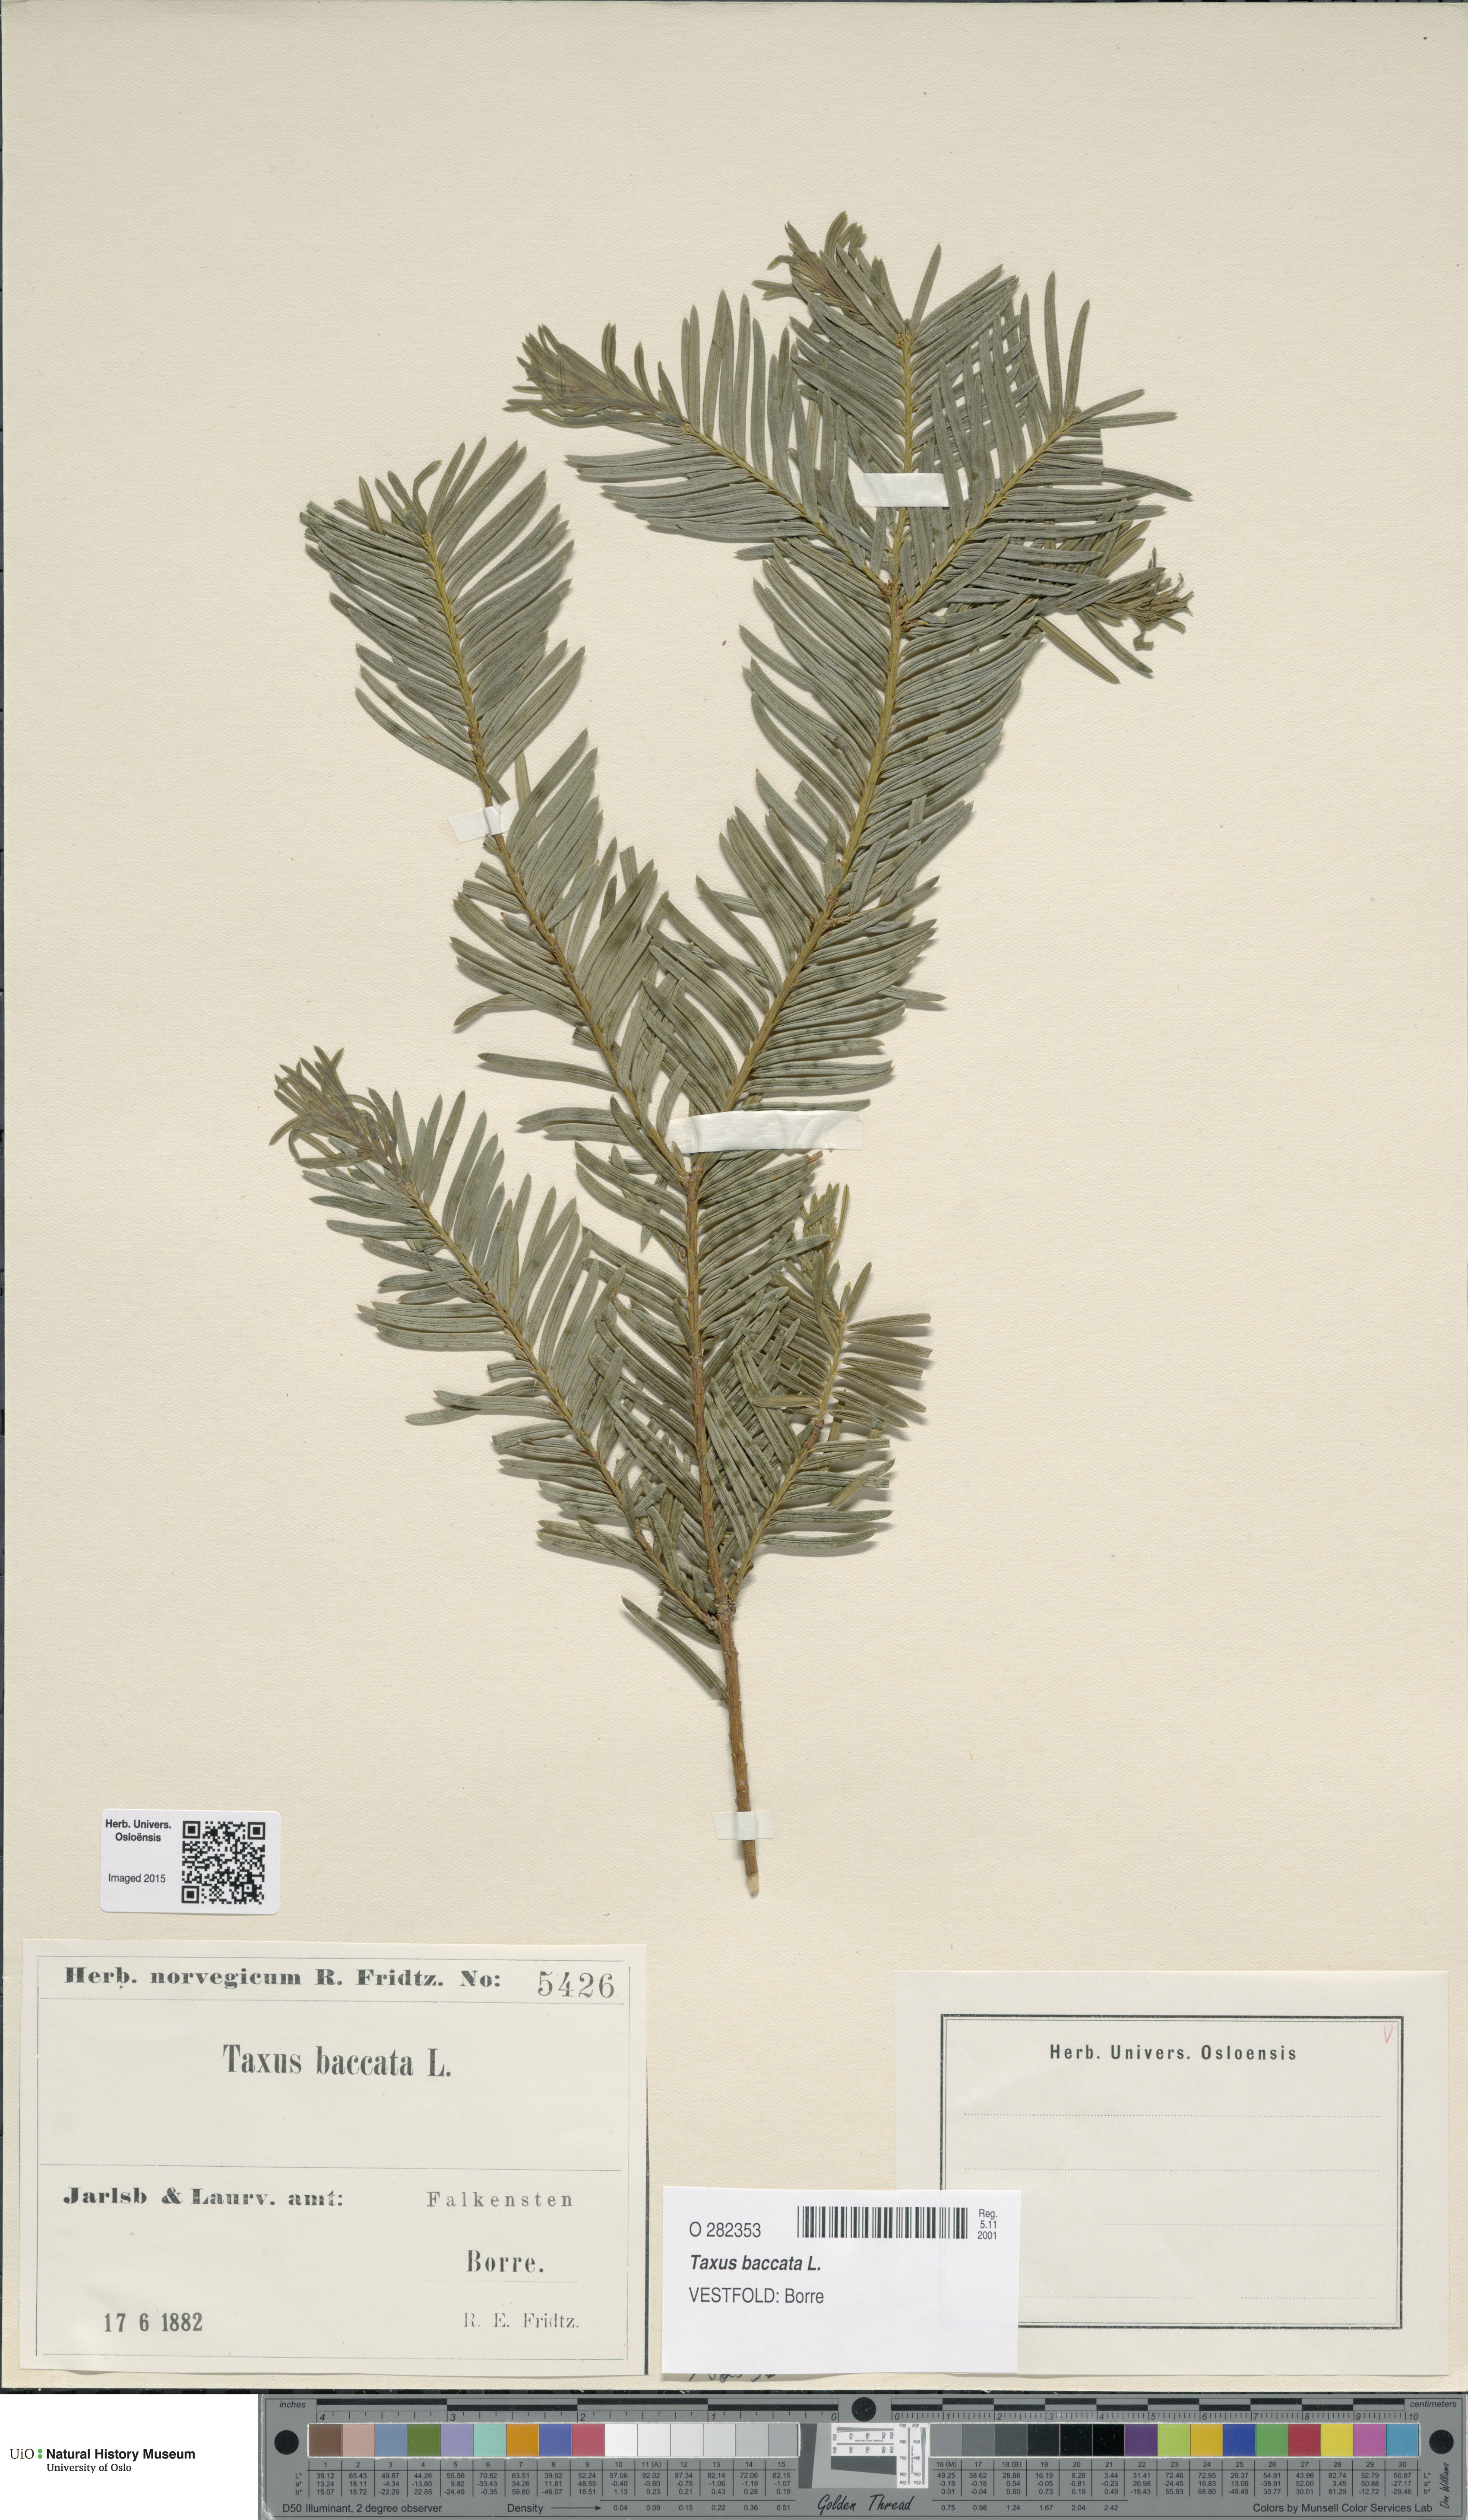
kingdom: Plantae
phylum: Tracheophyta
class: Pinopsida
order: Pinales
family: Taxaceae
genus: Taxus
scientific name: Taxus baccata
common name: Yew
